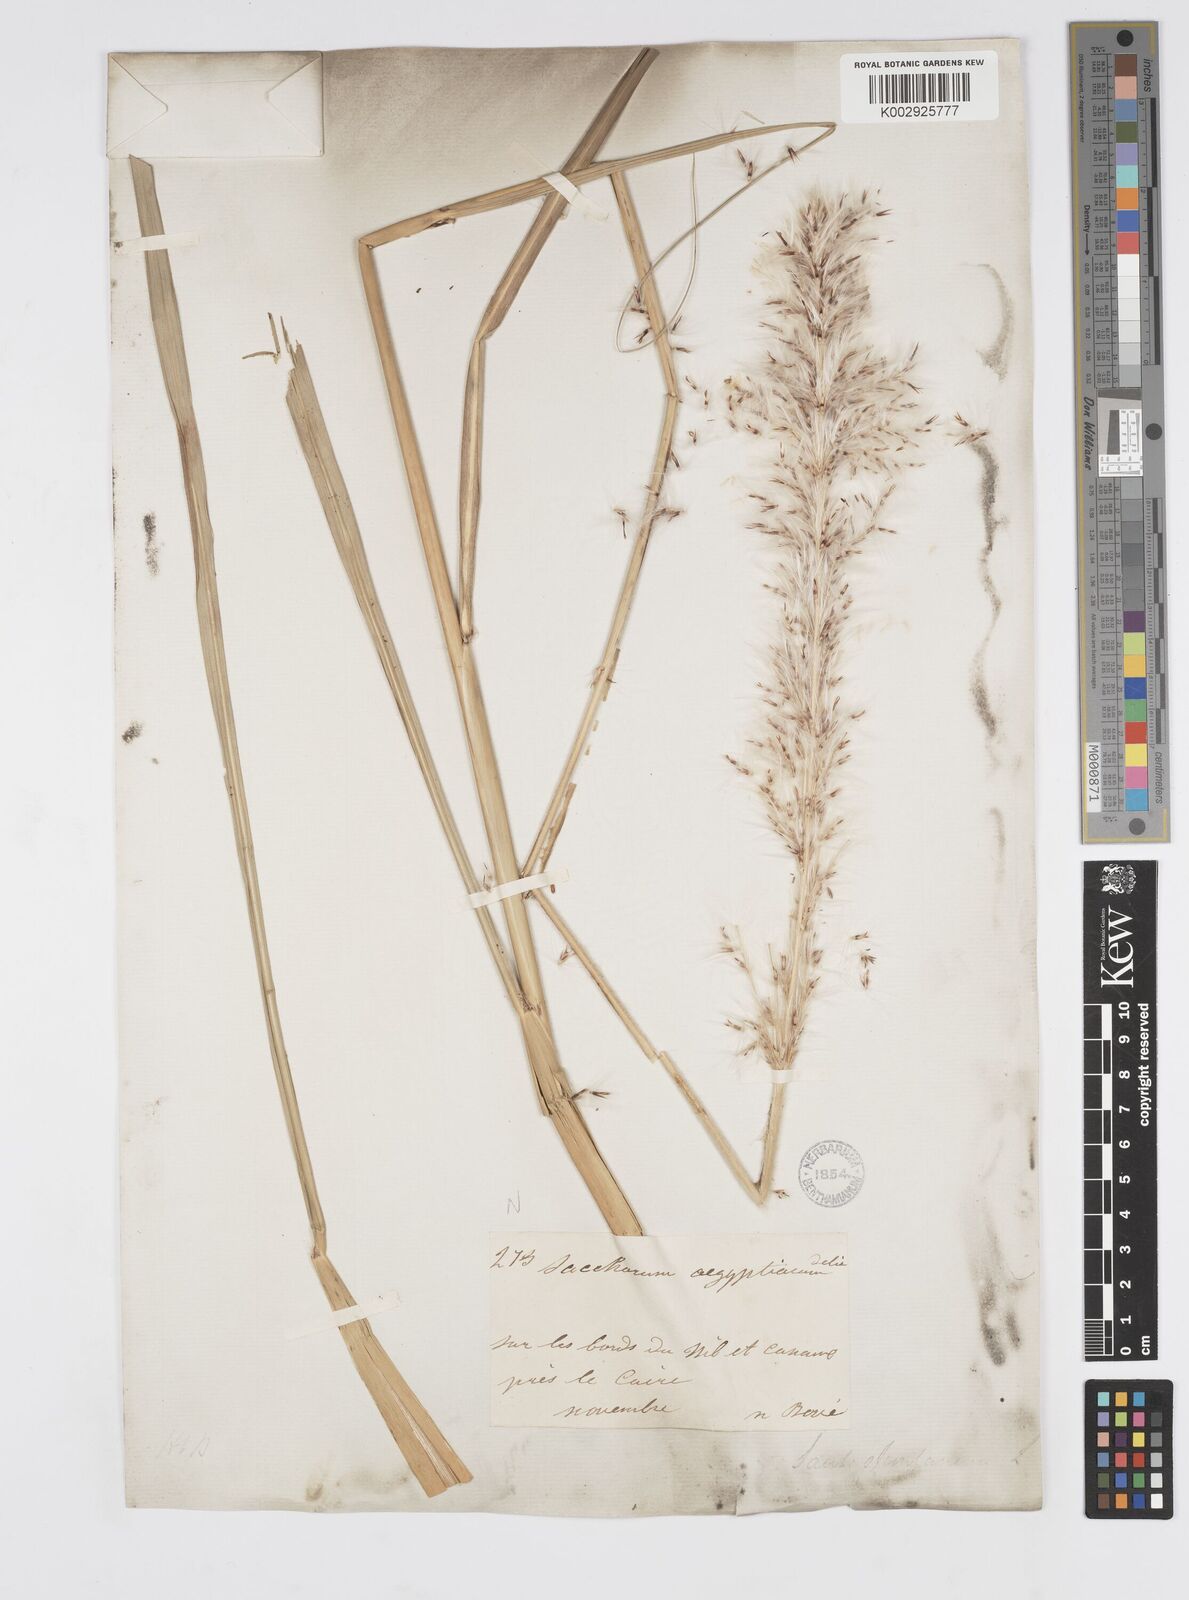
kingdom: Plantae
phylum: Tracheophyta
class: Liliopsida
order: Poales
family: Poaceae
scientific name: Poaceae
